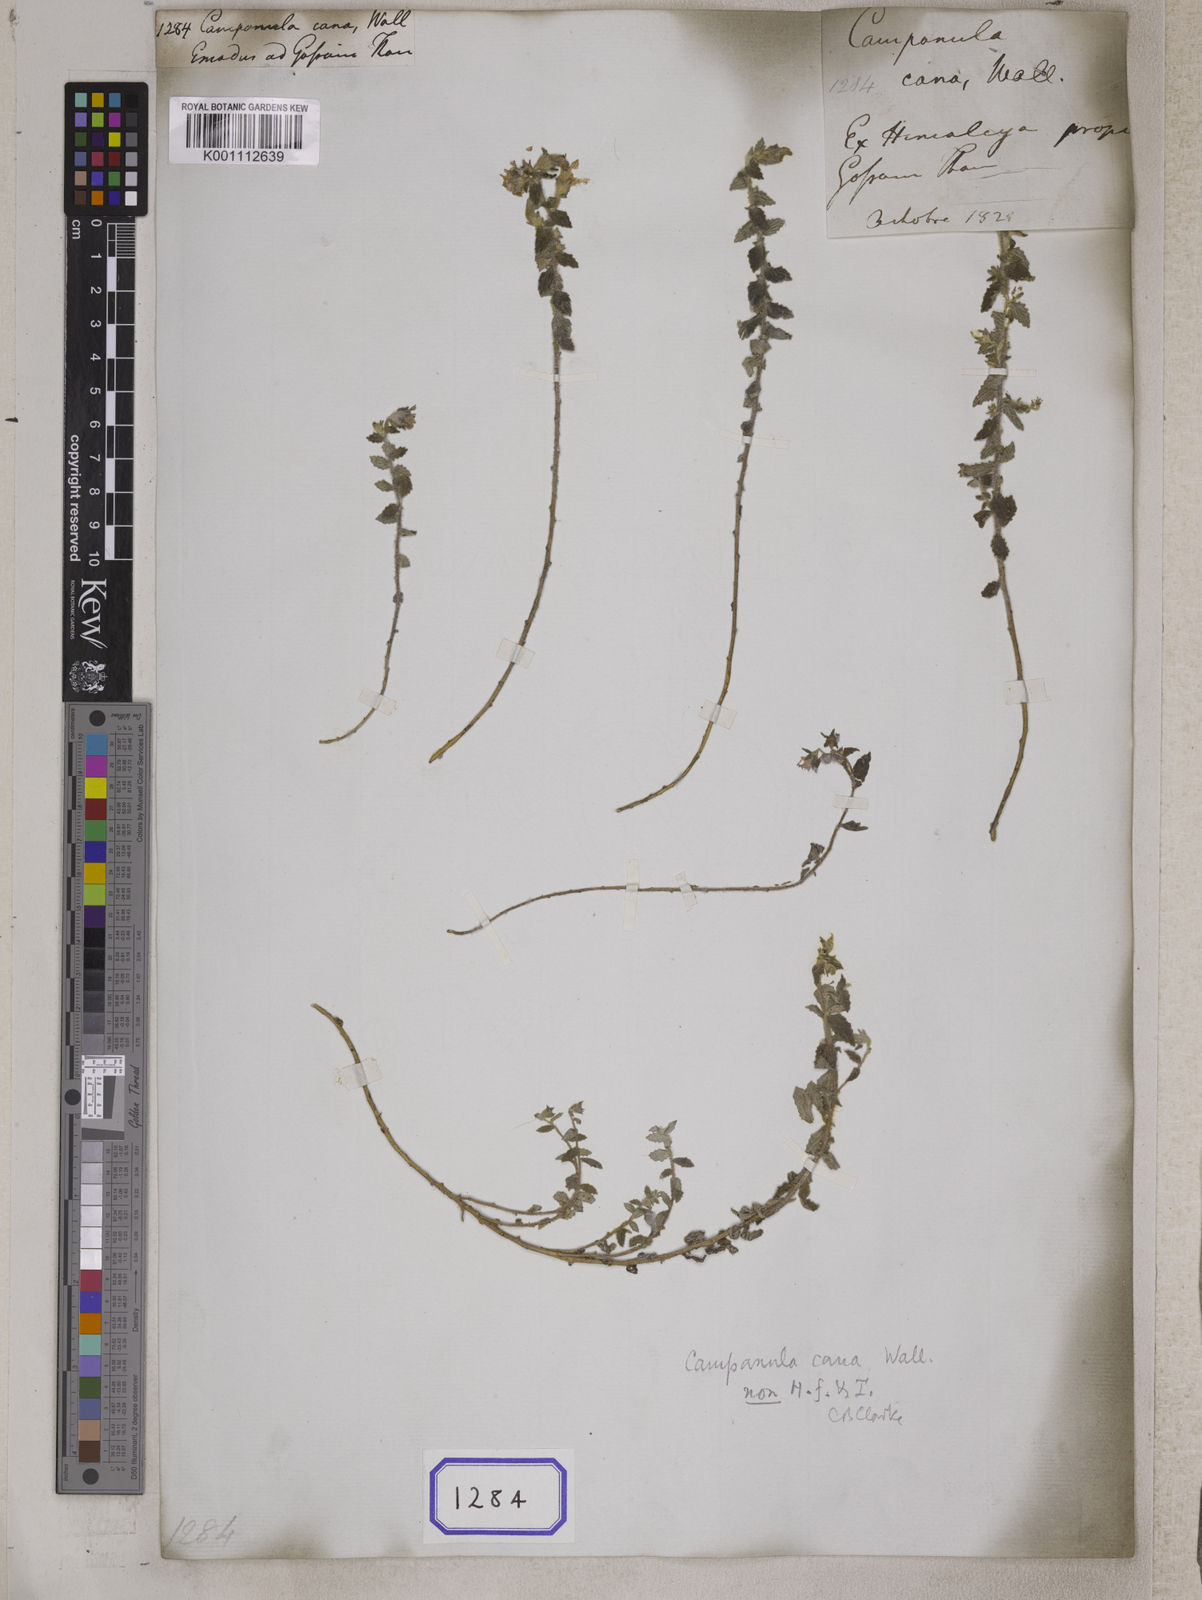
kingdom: Plantae
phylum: Tracheophyta
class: Magnoliopsida
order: Asterales
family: Campanulaceae
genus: Campanula
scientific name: Campanula cana
